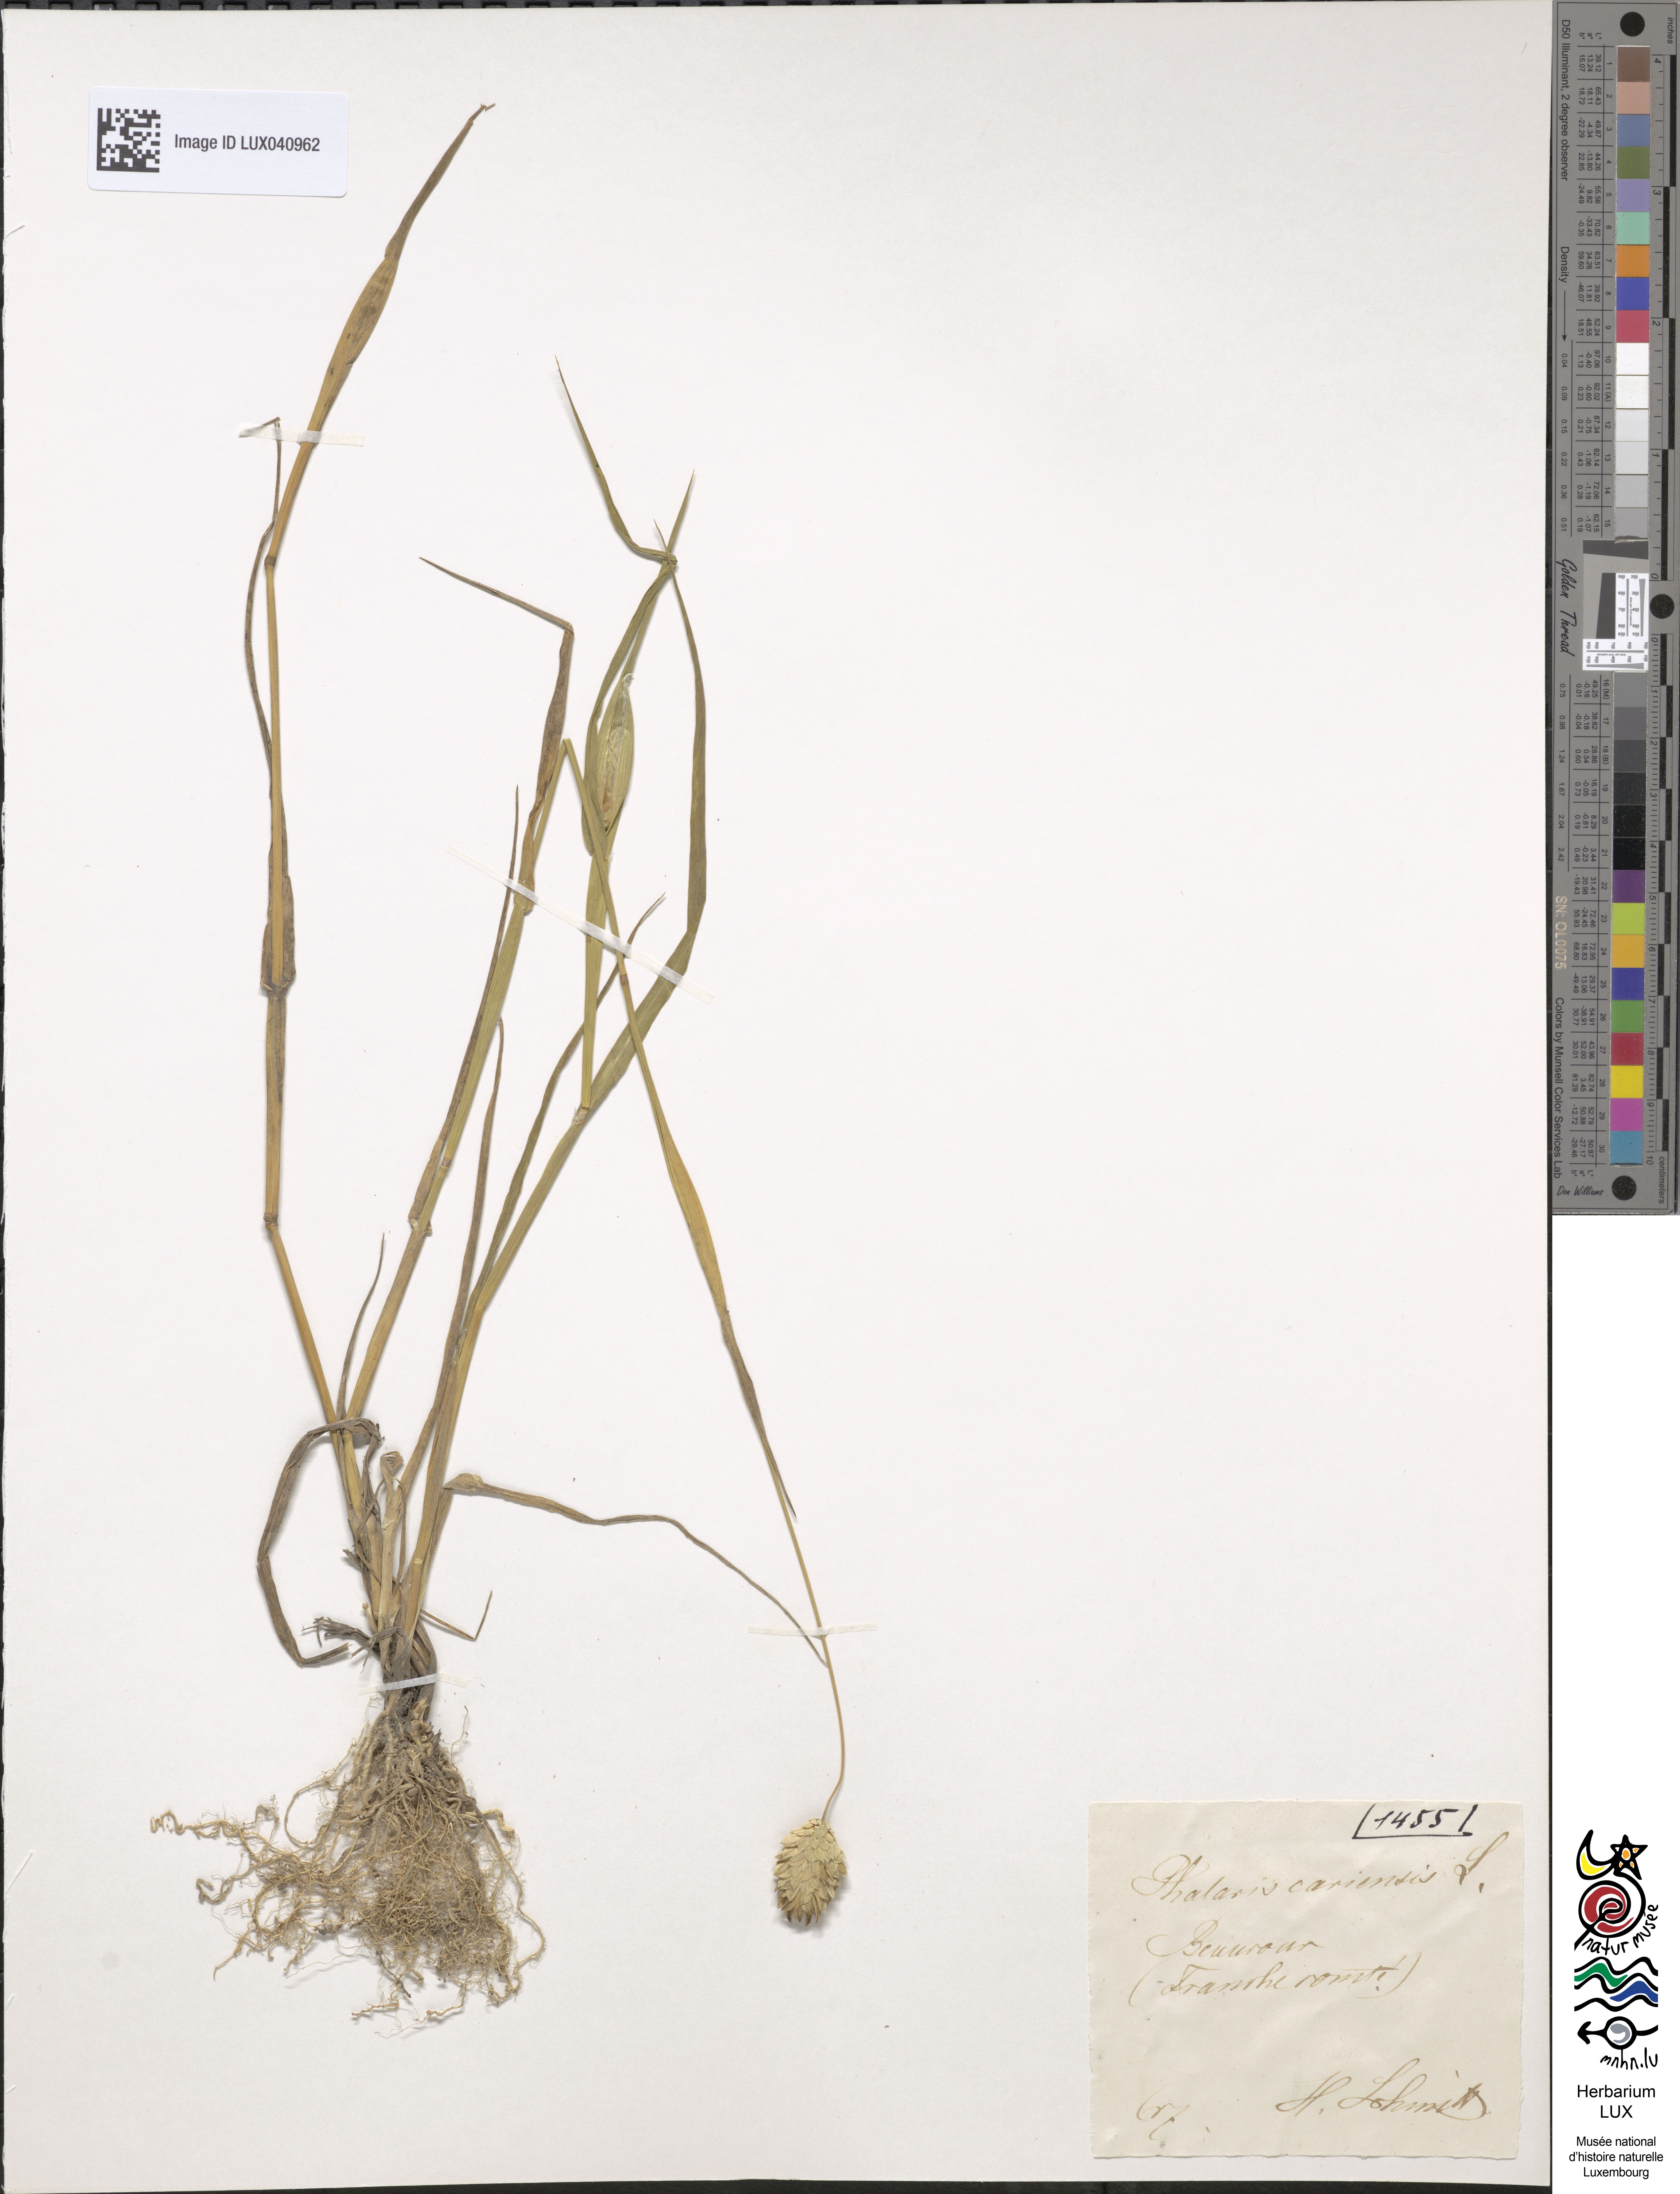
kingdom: Plantae
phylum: Tracheophyta
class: Liliopsida
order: Poales
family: Poaceae
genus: Phalaris
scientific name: Phalaris canariensis
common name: Annual canarygrass
